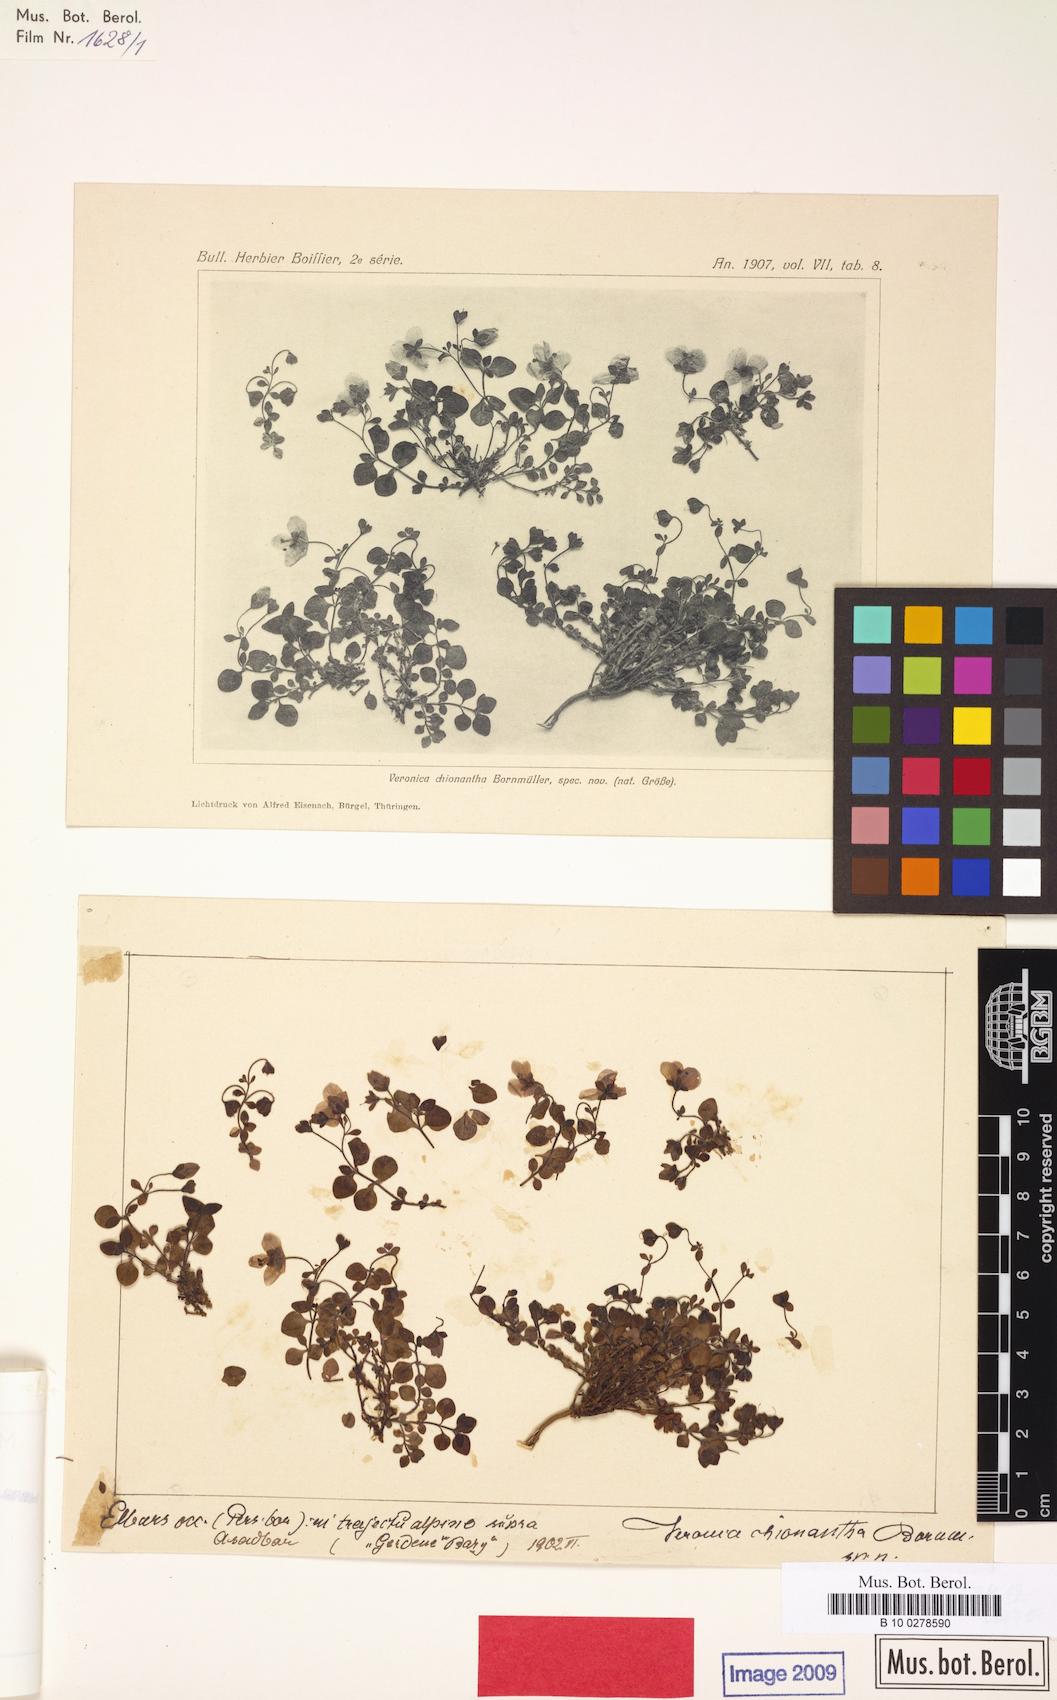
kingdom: Plantae
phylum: Tracheophyta
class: Magnoliopsida
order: Lamiales
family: Plantaginaceae
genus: Veronica
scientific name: Veronica chionantha
